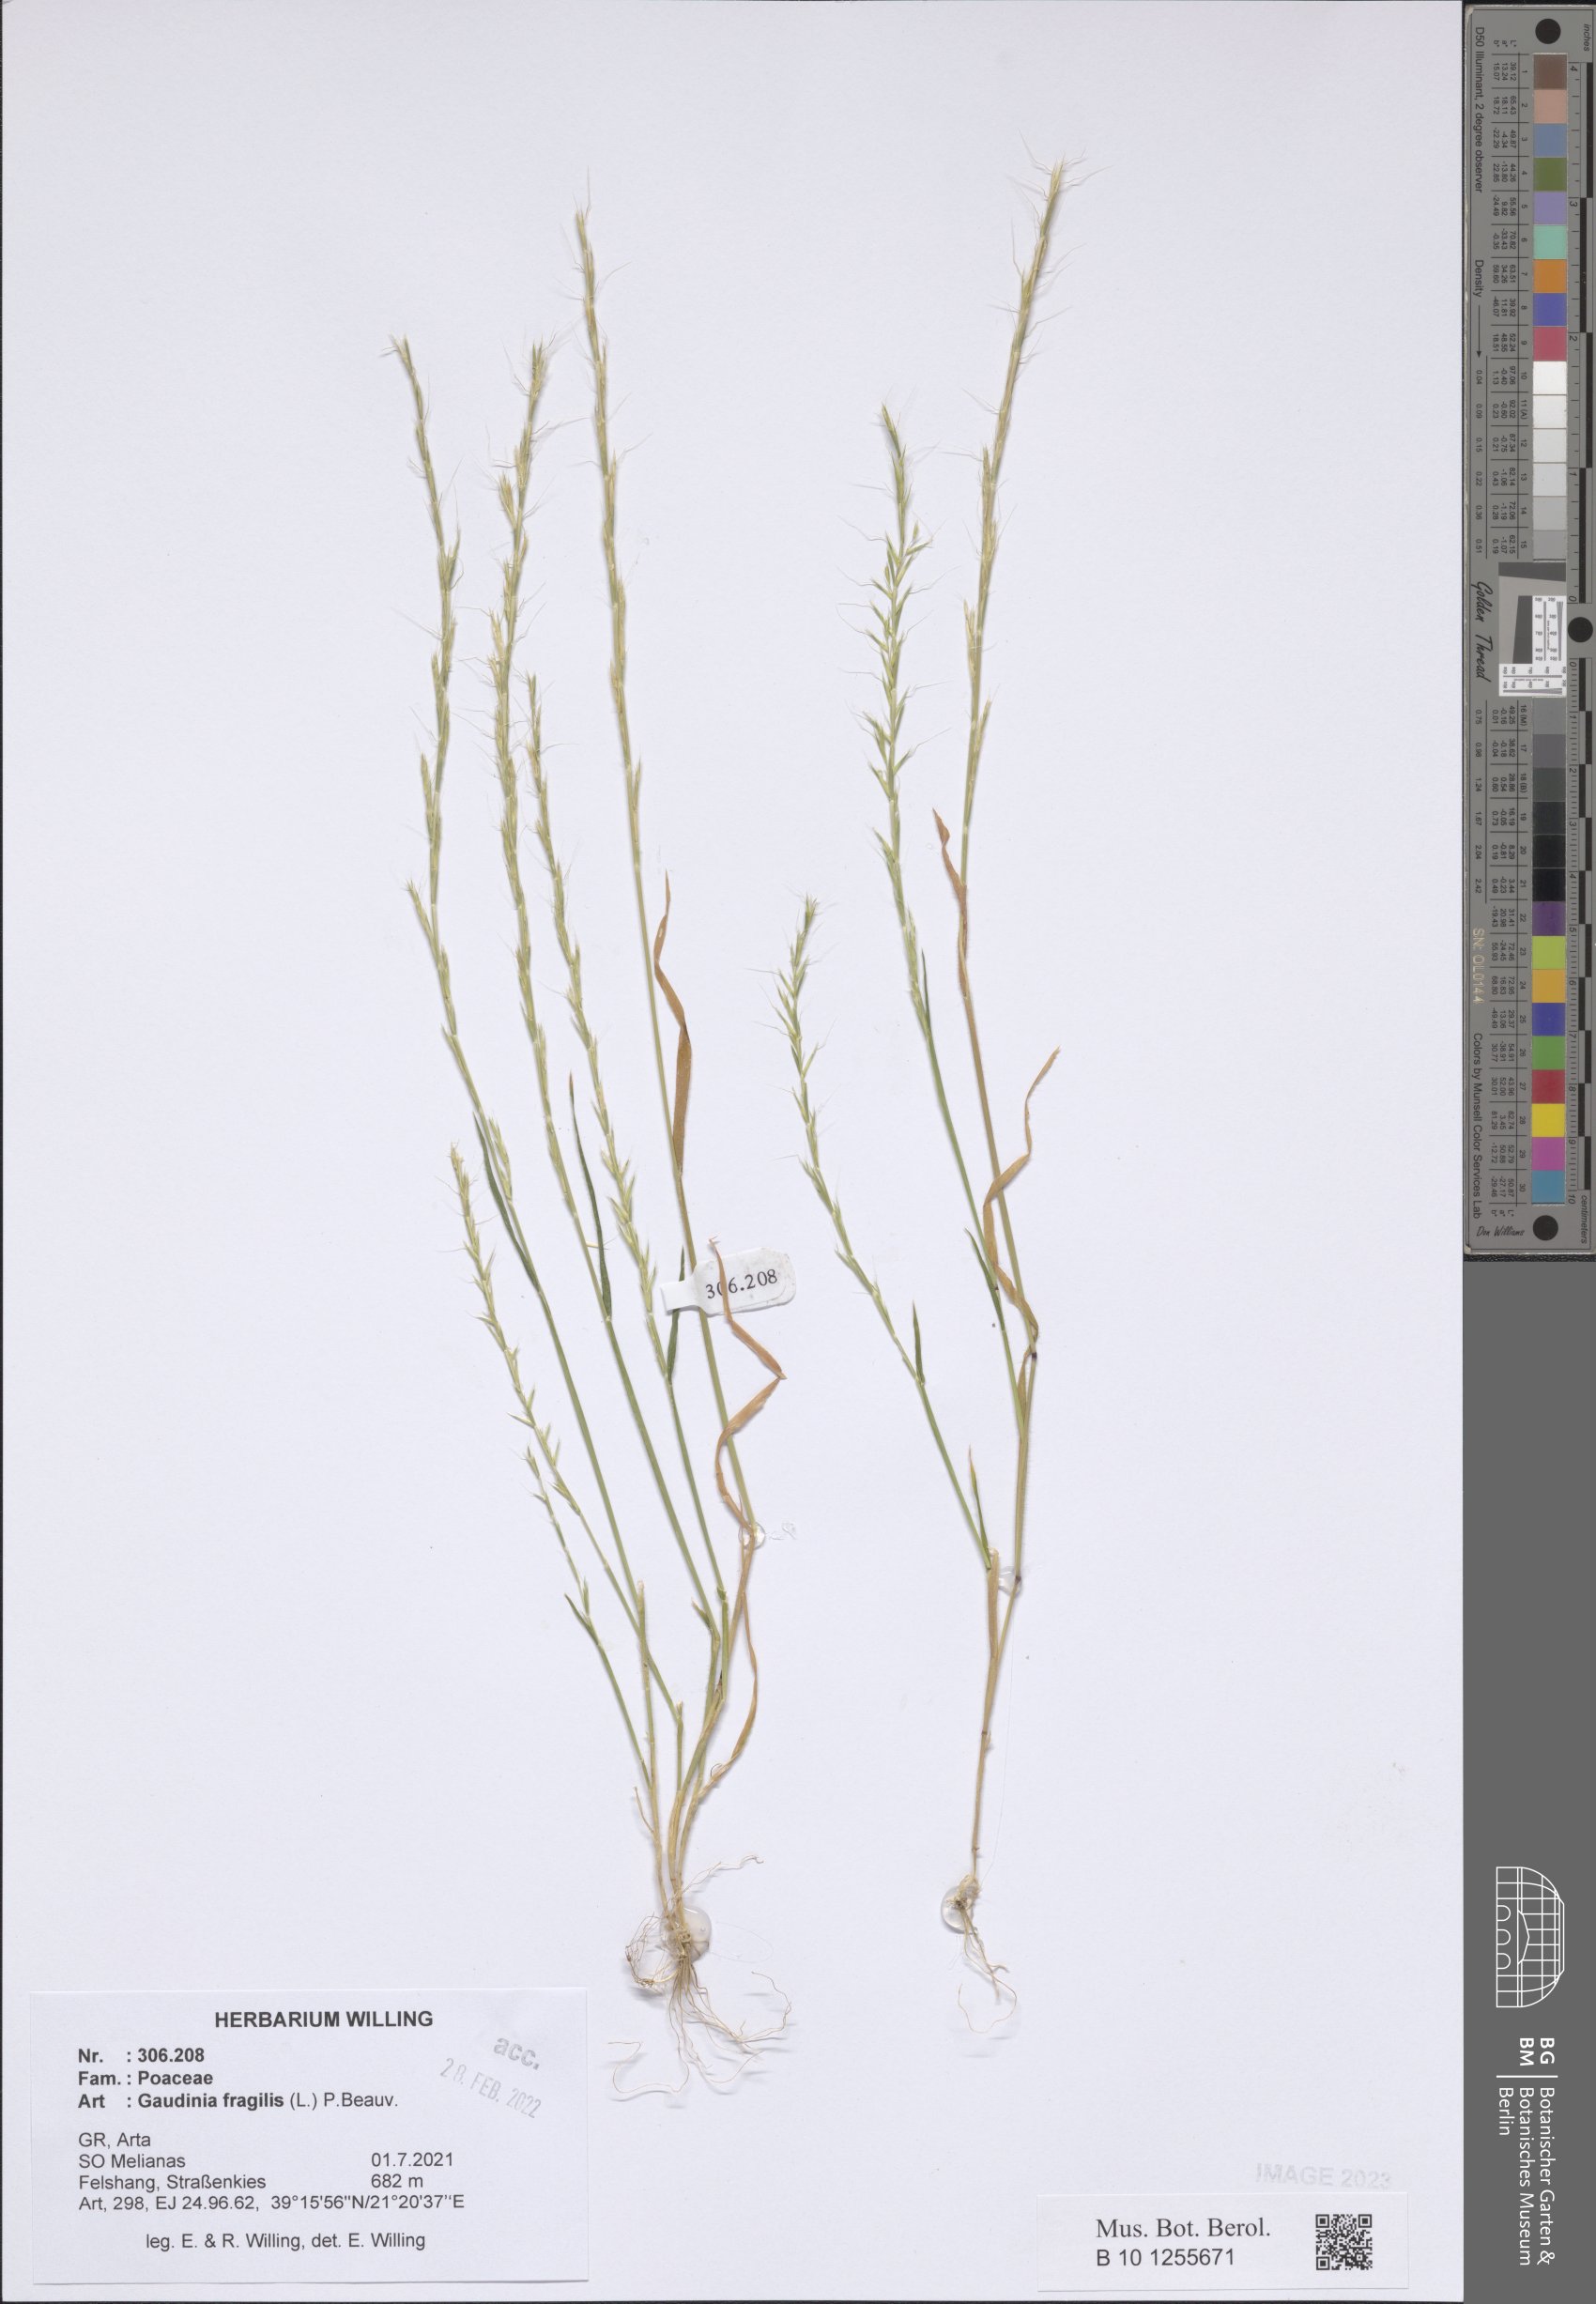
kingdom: Plantae
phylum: Tracheophyta
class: Liliopsida
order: Poales
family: Poaceae
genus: Gaudinia
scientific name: Gaudinia fragilis
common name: French oat-grass
